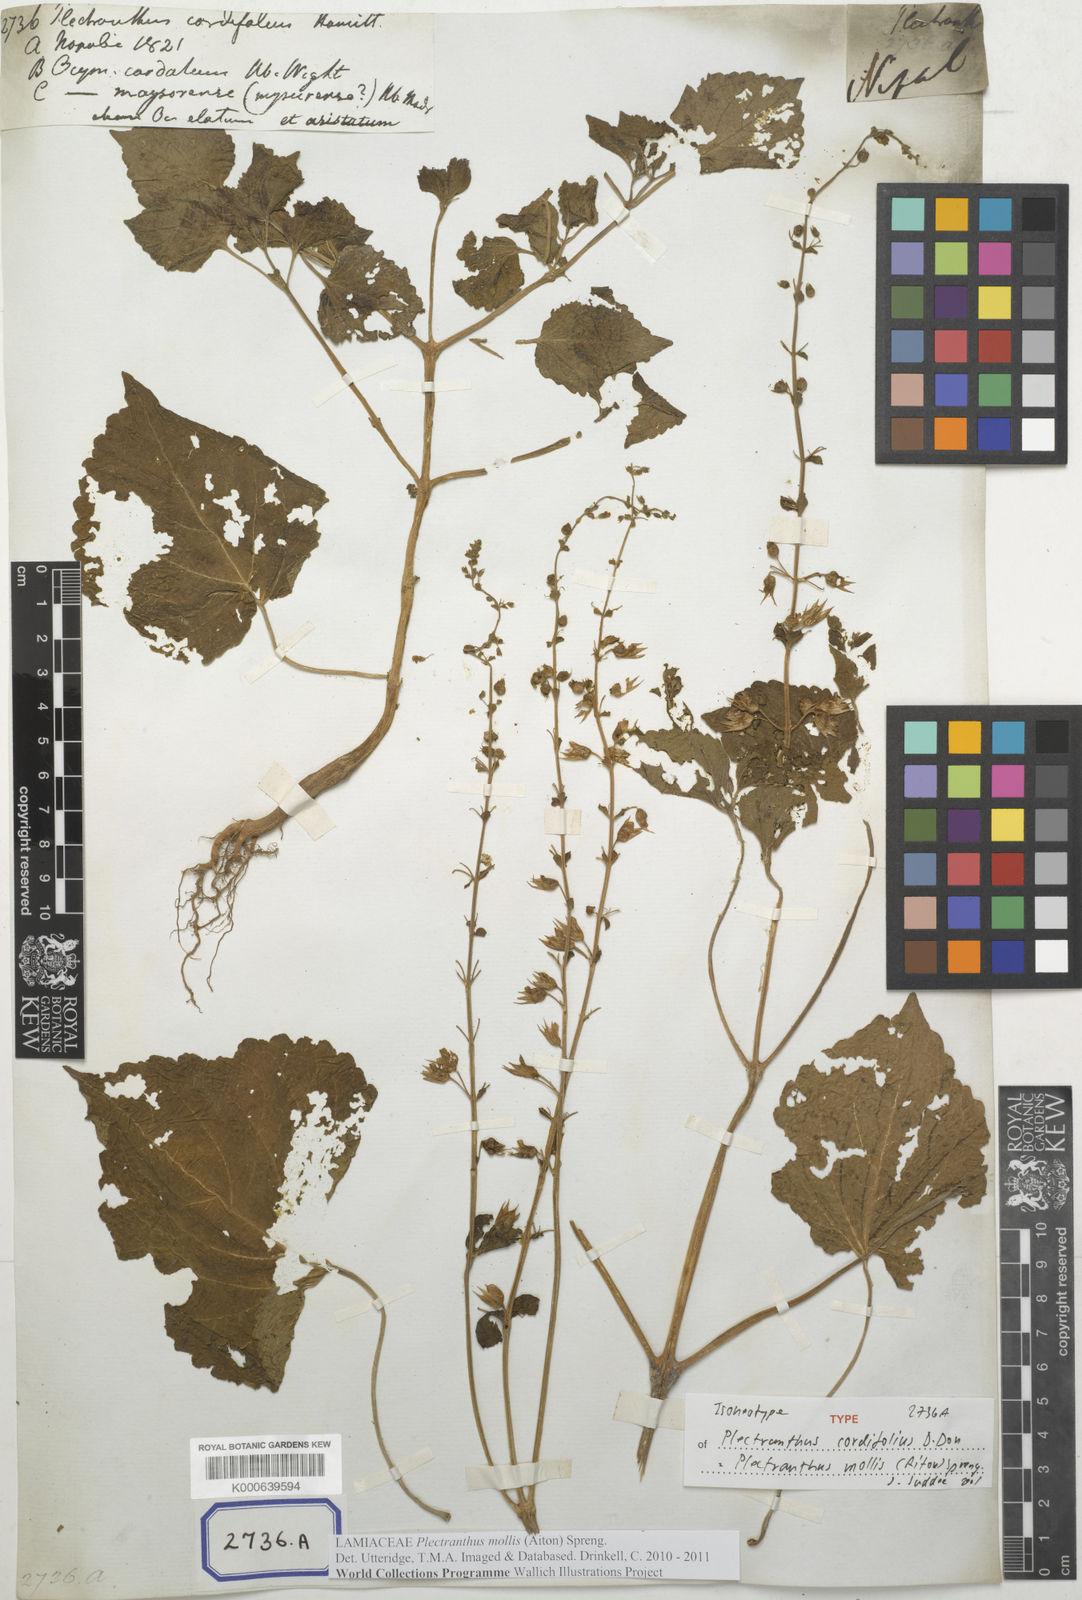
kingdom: Plantae
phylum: Tracheophyta
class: Magnoliopsida
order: Lamiales
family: Lamiaceae
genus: Equilabium
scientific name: Equilabium molle
